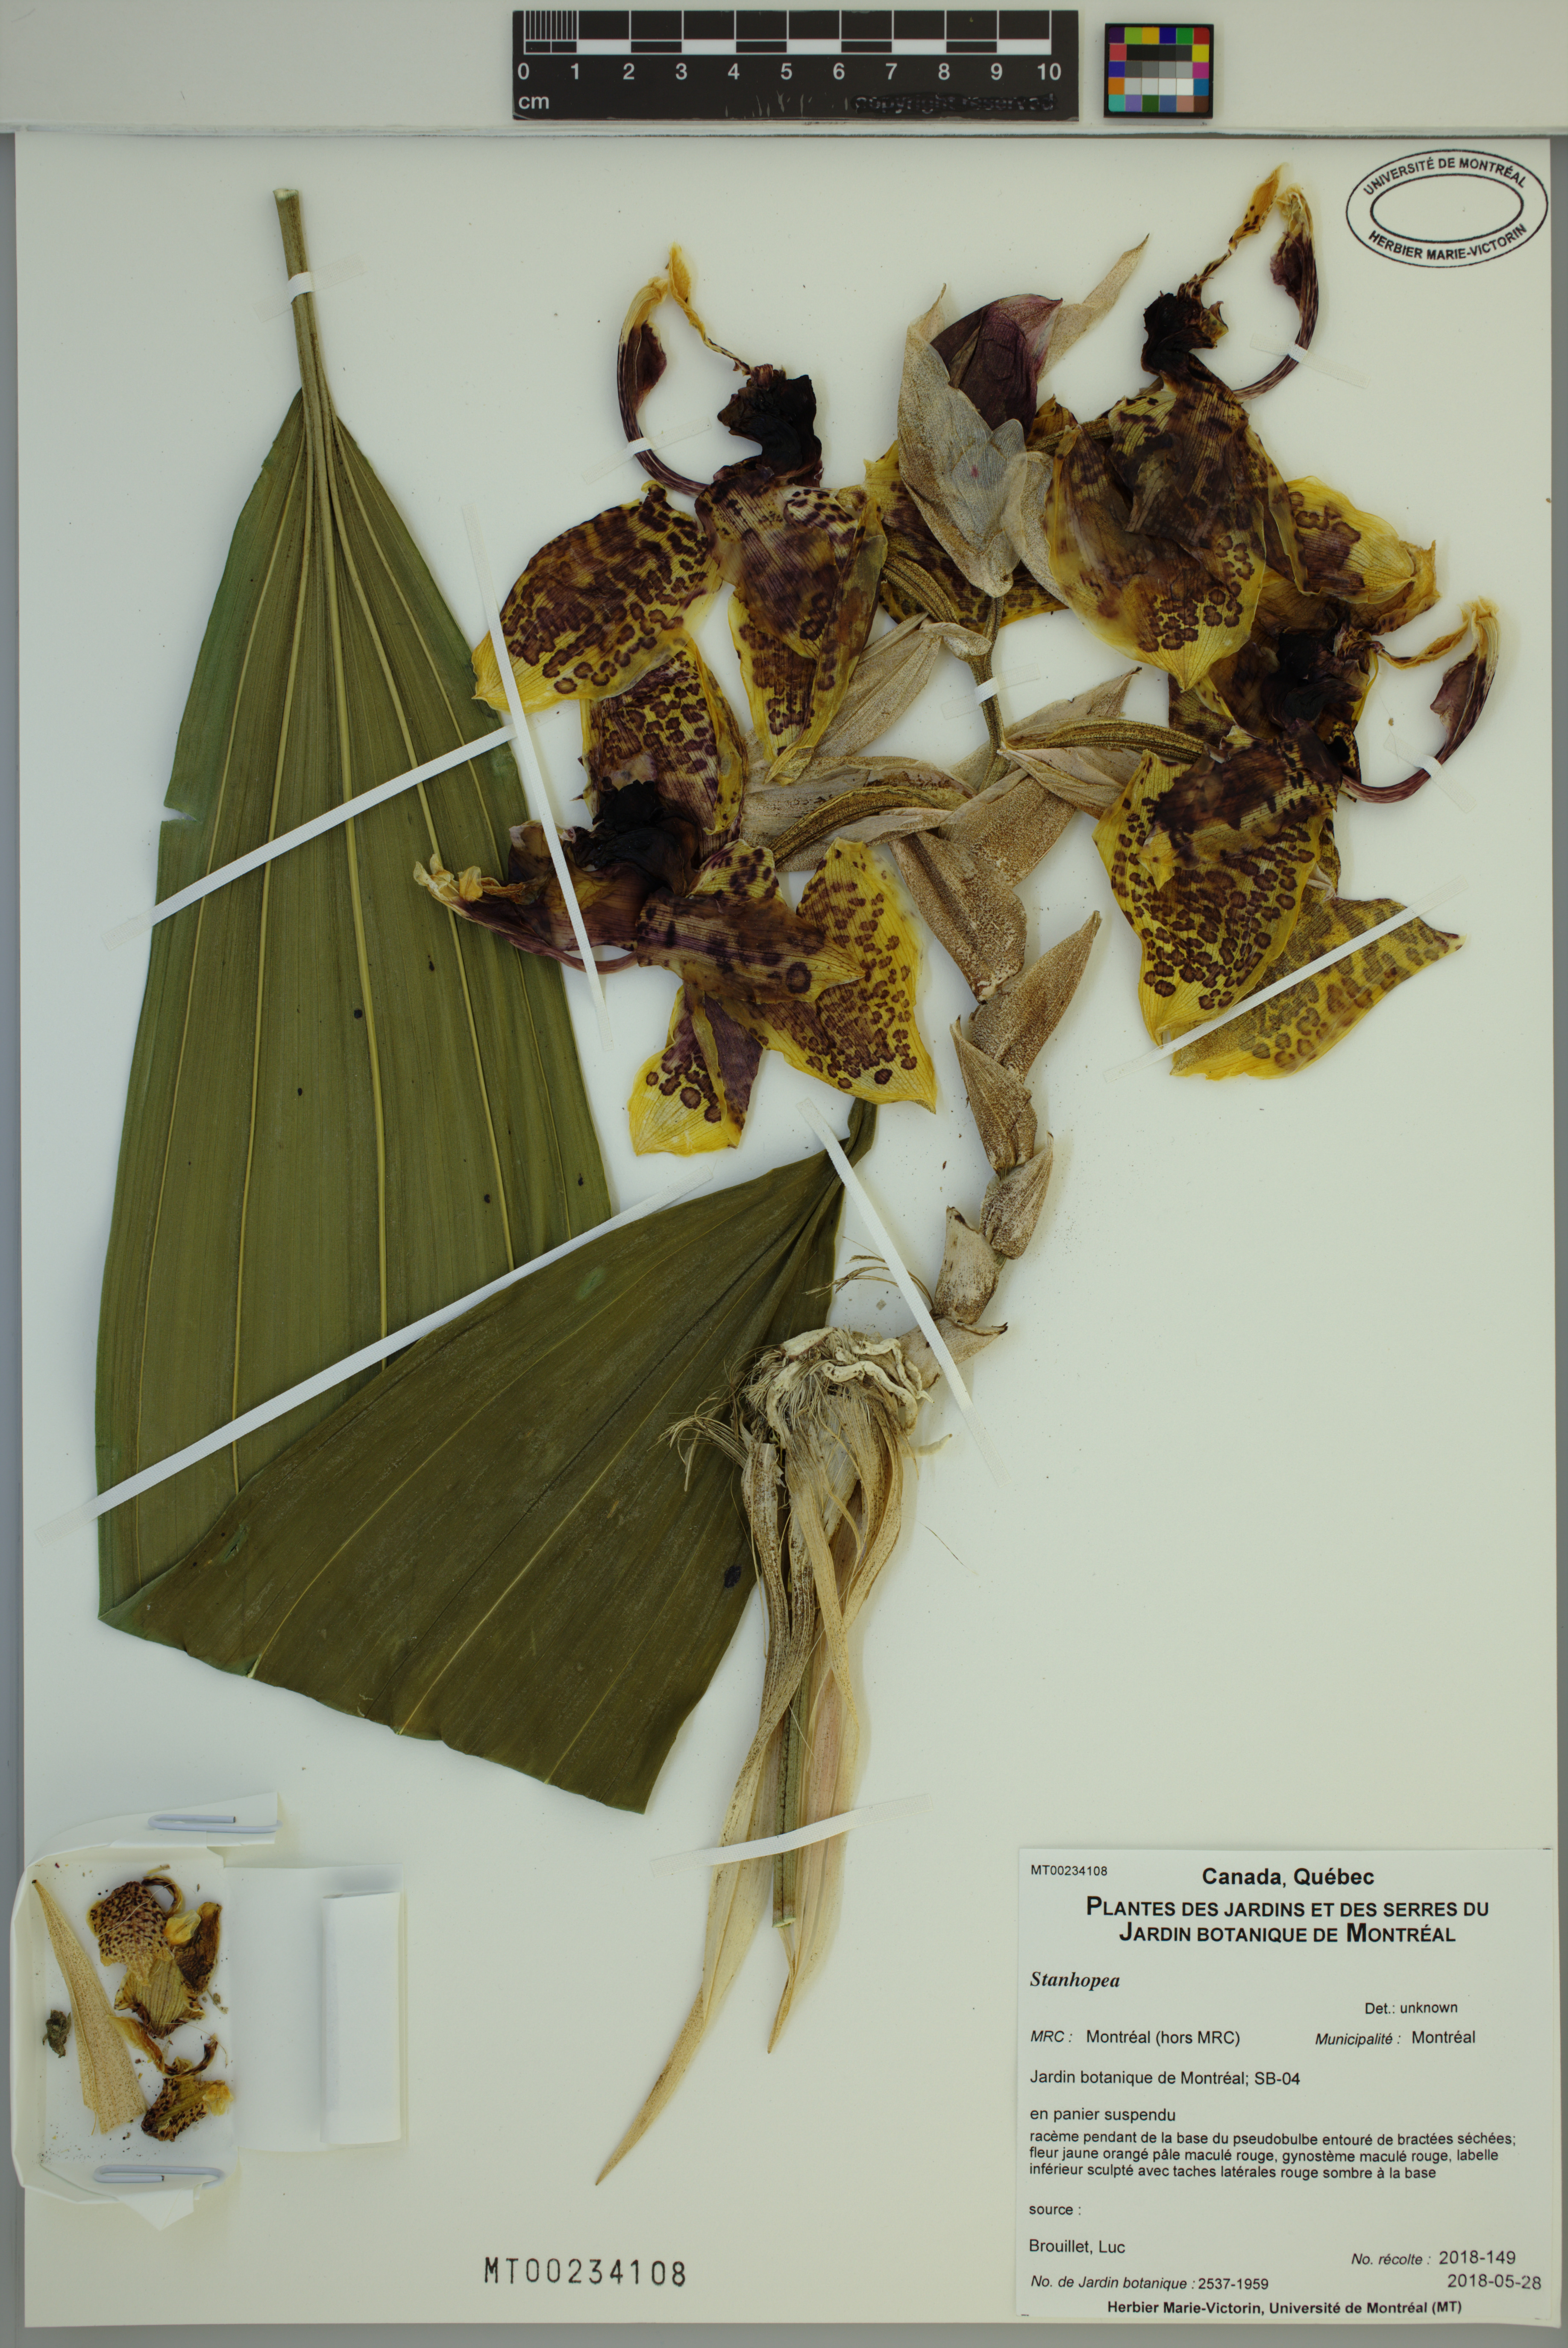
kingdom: Plantae
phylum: Tracheophyta
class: Liliopsida
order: Asparagales
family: Orchidaceae
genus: Stanhopea
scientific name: Stanhopea
